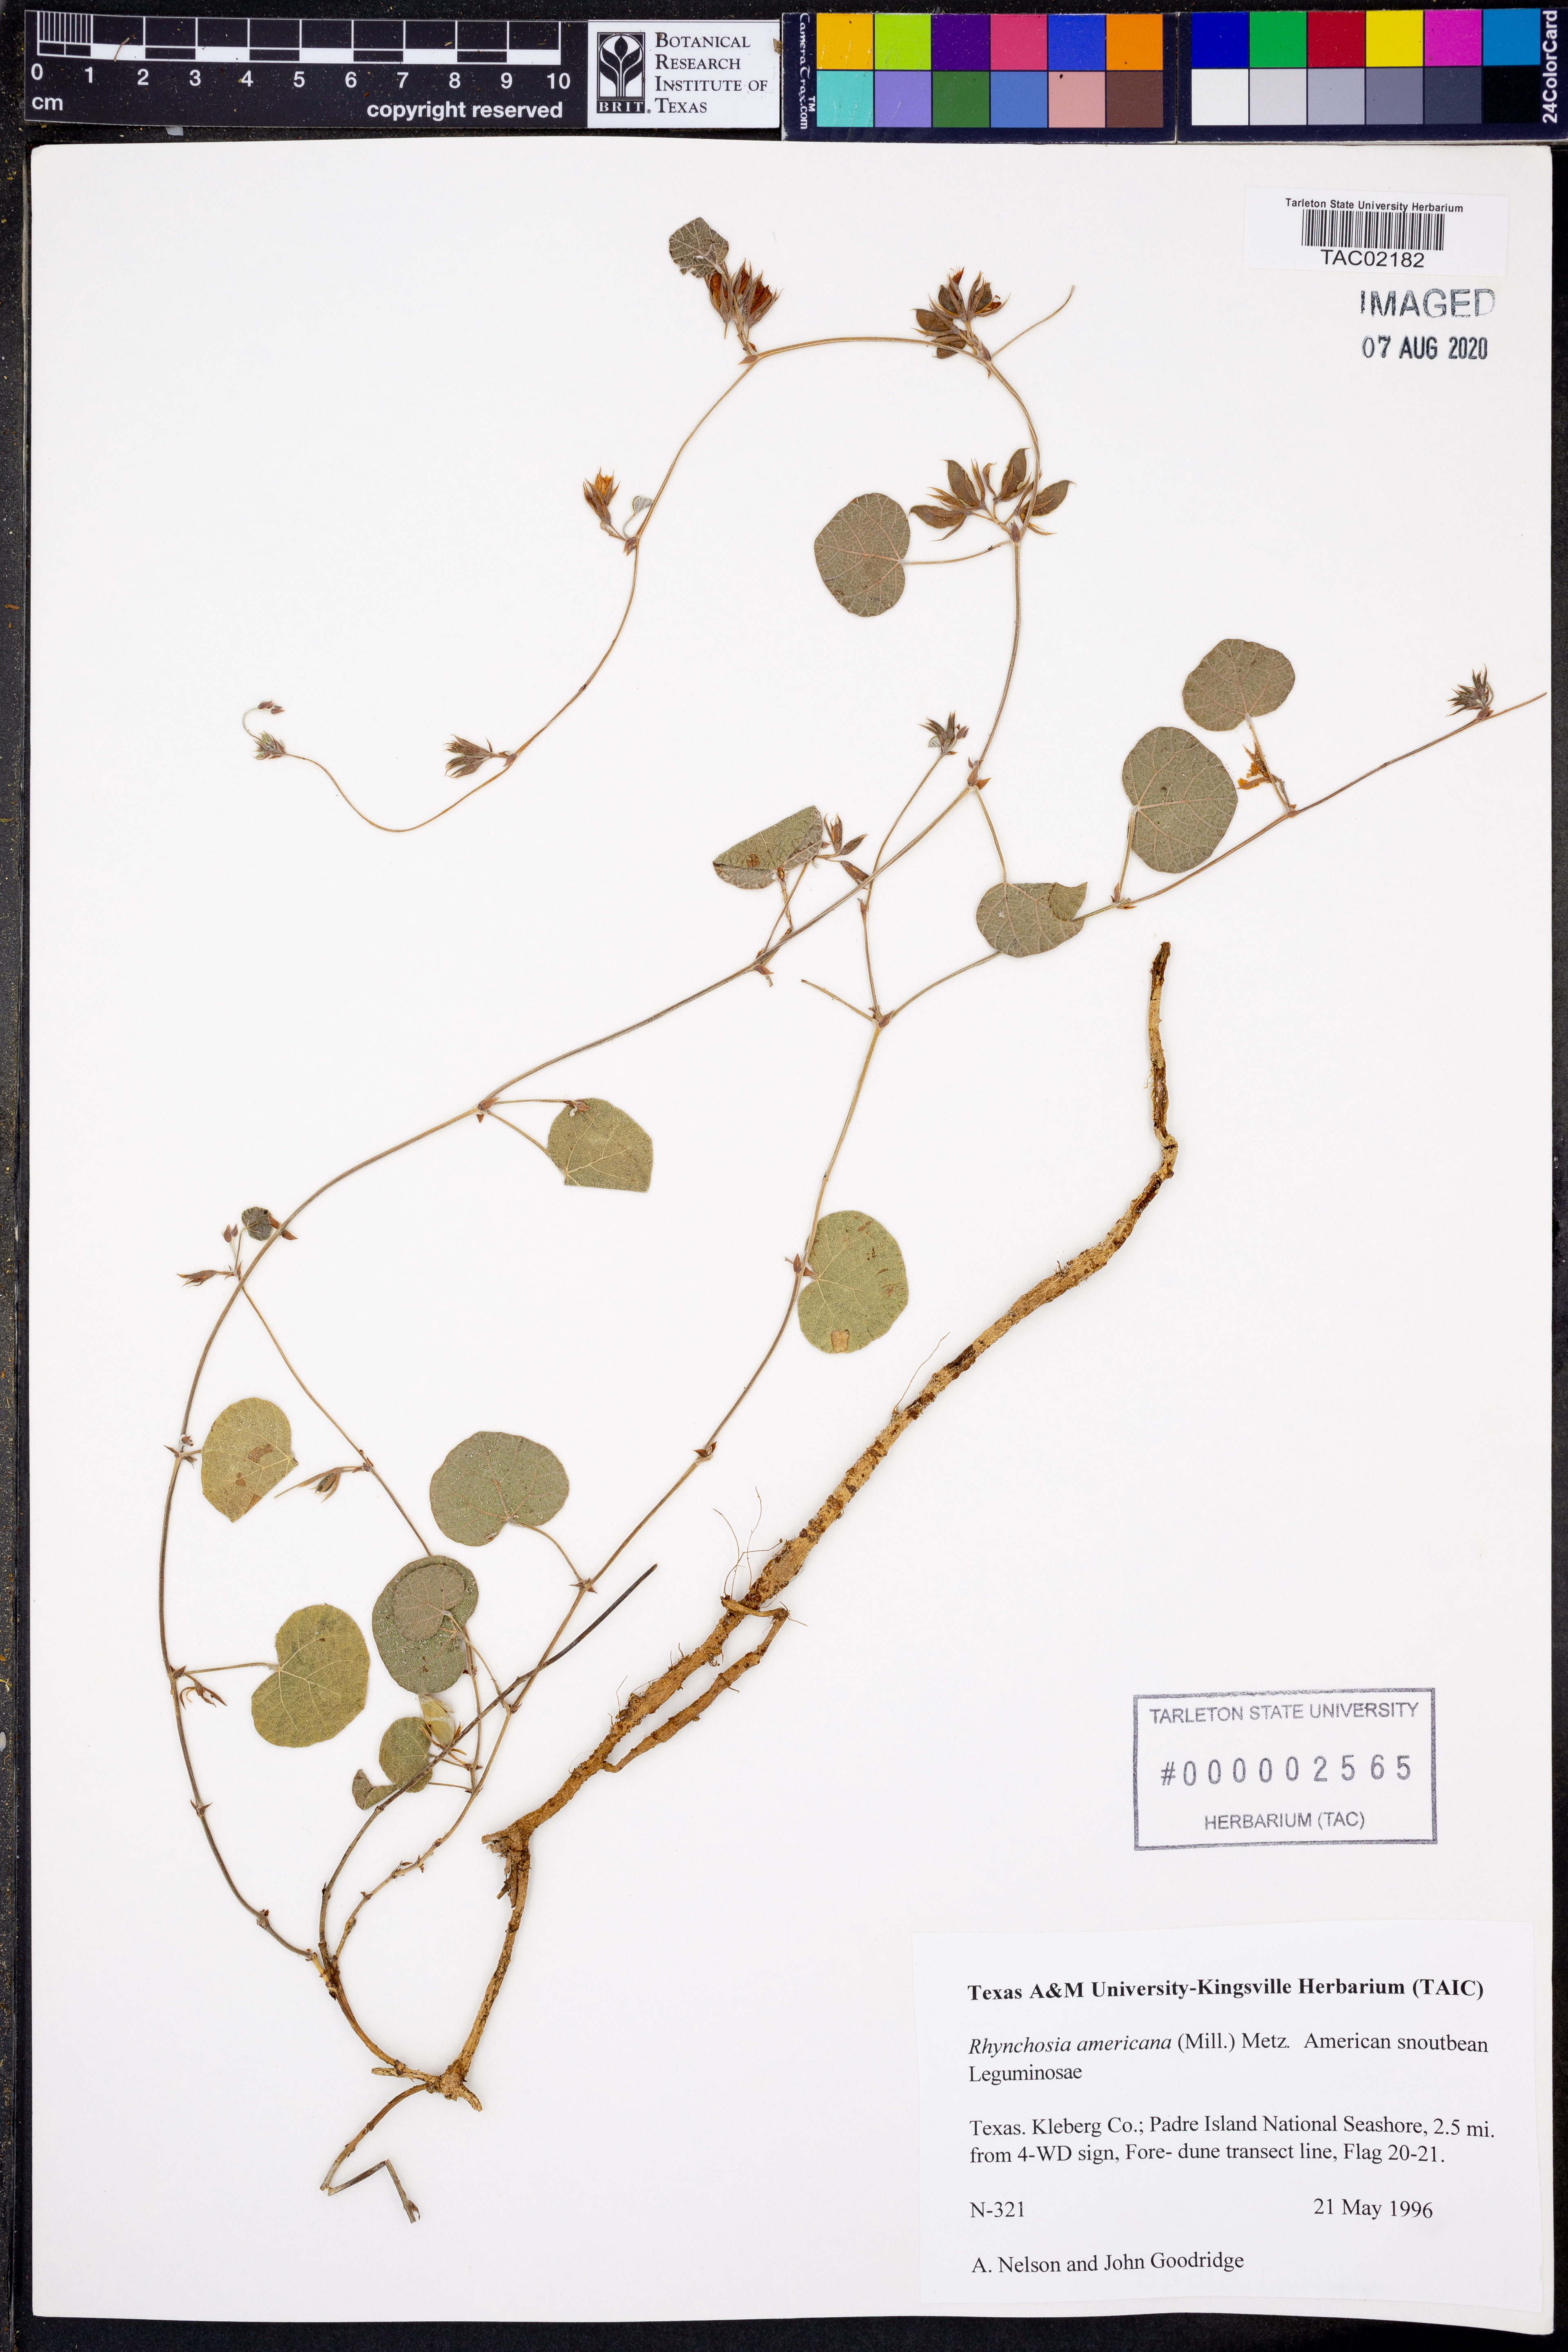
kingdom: Plantae
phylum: Tracheophyta
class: Magnoliopsida
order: Fabales
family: Fabaceae
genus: Rhynchosia
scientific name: Rhynchosia americana
